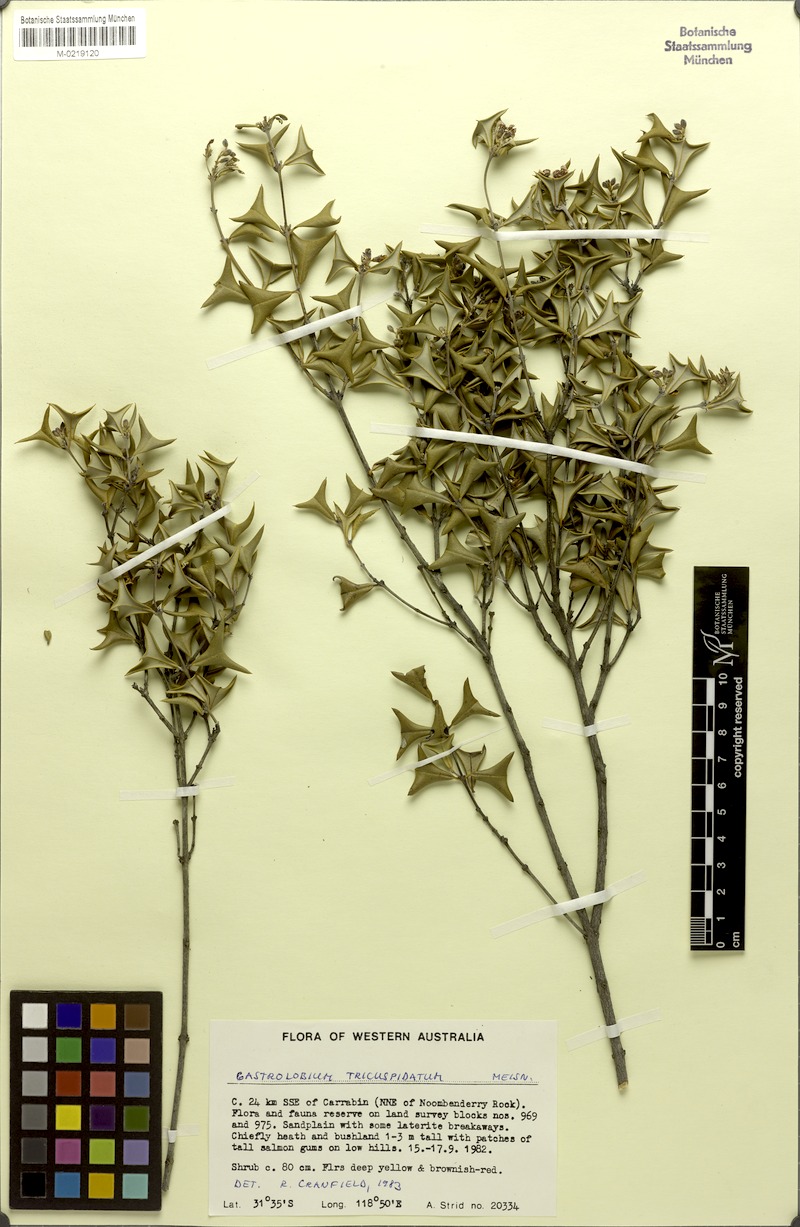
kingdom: Plantae
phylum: Tracheophyta
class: Magnoliopsida
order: Fabales
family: Fabaceae
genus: Gastrolobium
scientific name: Gastrolobium diabolophyllum
